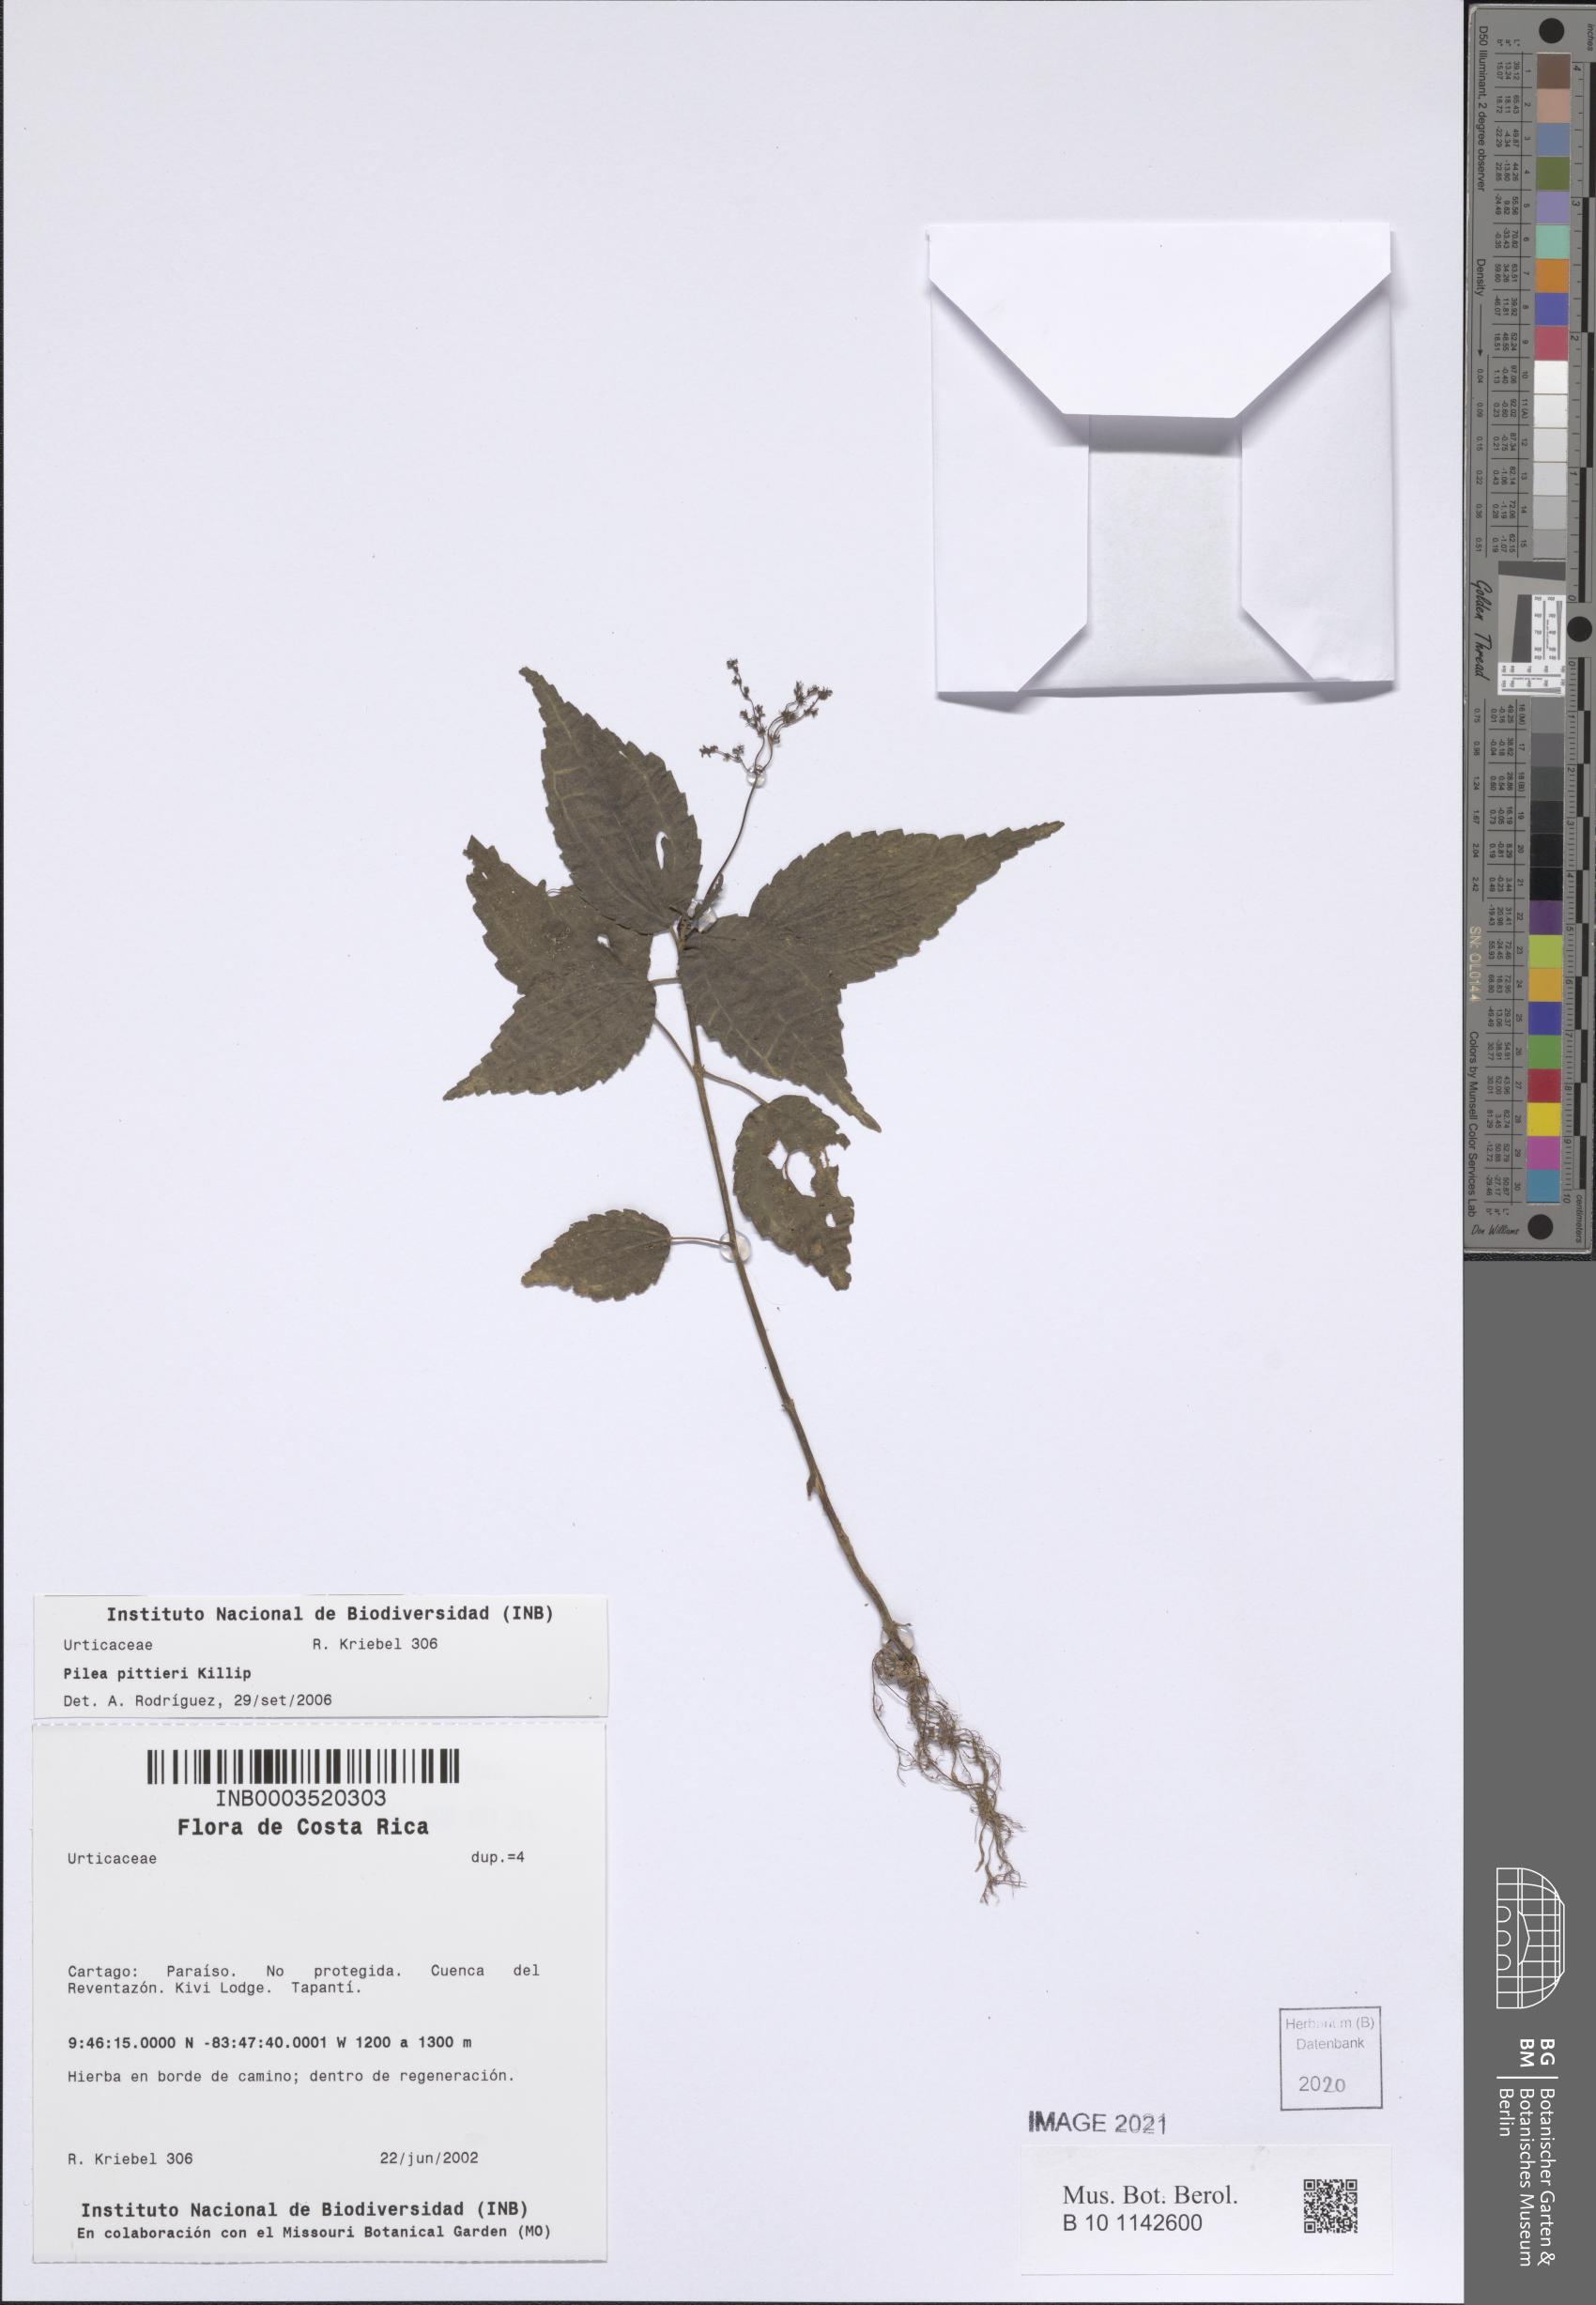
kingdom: Plantae
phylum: Tracheophyta
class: Magnoliopsida
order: Rosales
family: Urticaceae
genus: Pilea
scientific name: Pilea pittieri
